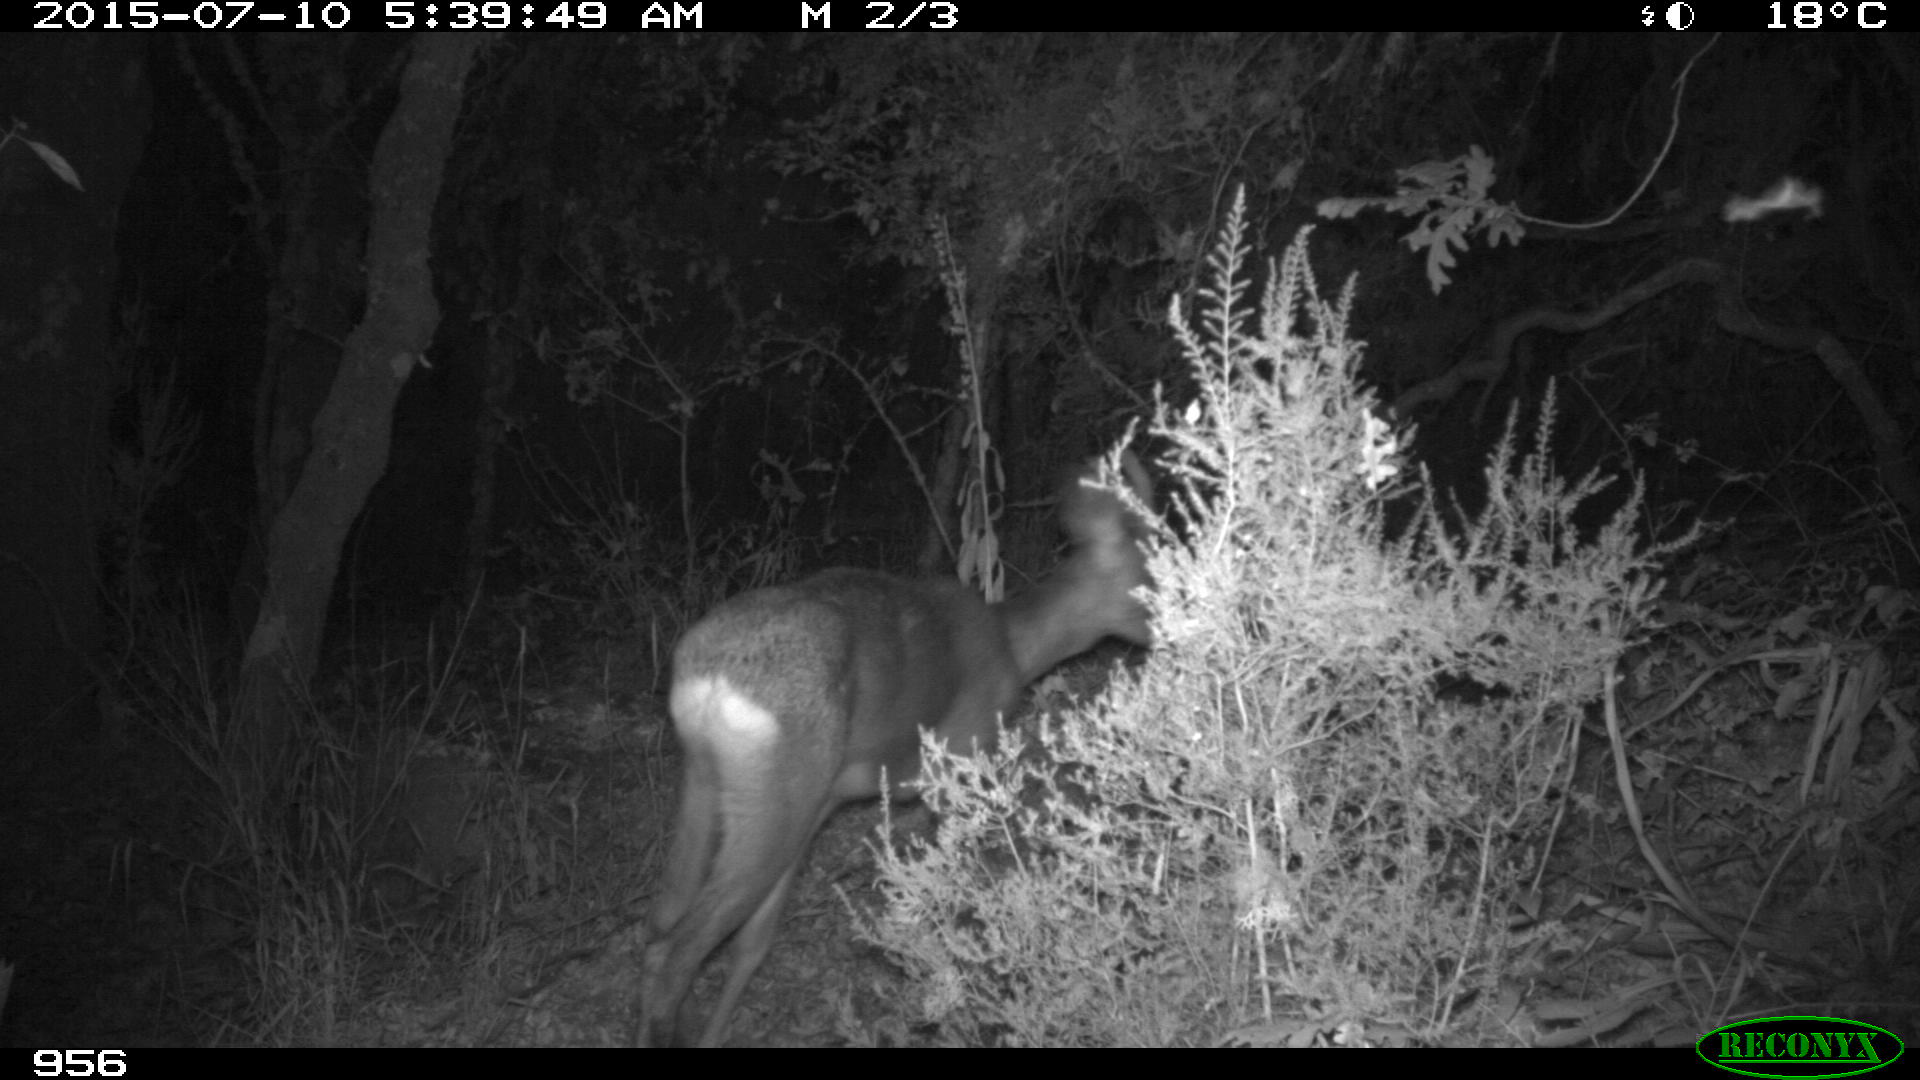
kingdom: Animalia
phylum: Chordata
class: Mammalia
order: Artiodactyla
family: Cervidae
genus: Capreolus
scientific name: Capreolus capreolus
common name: Western roe deer
